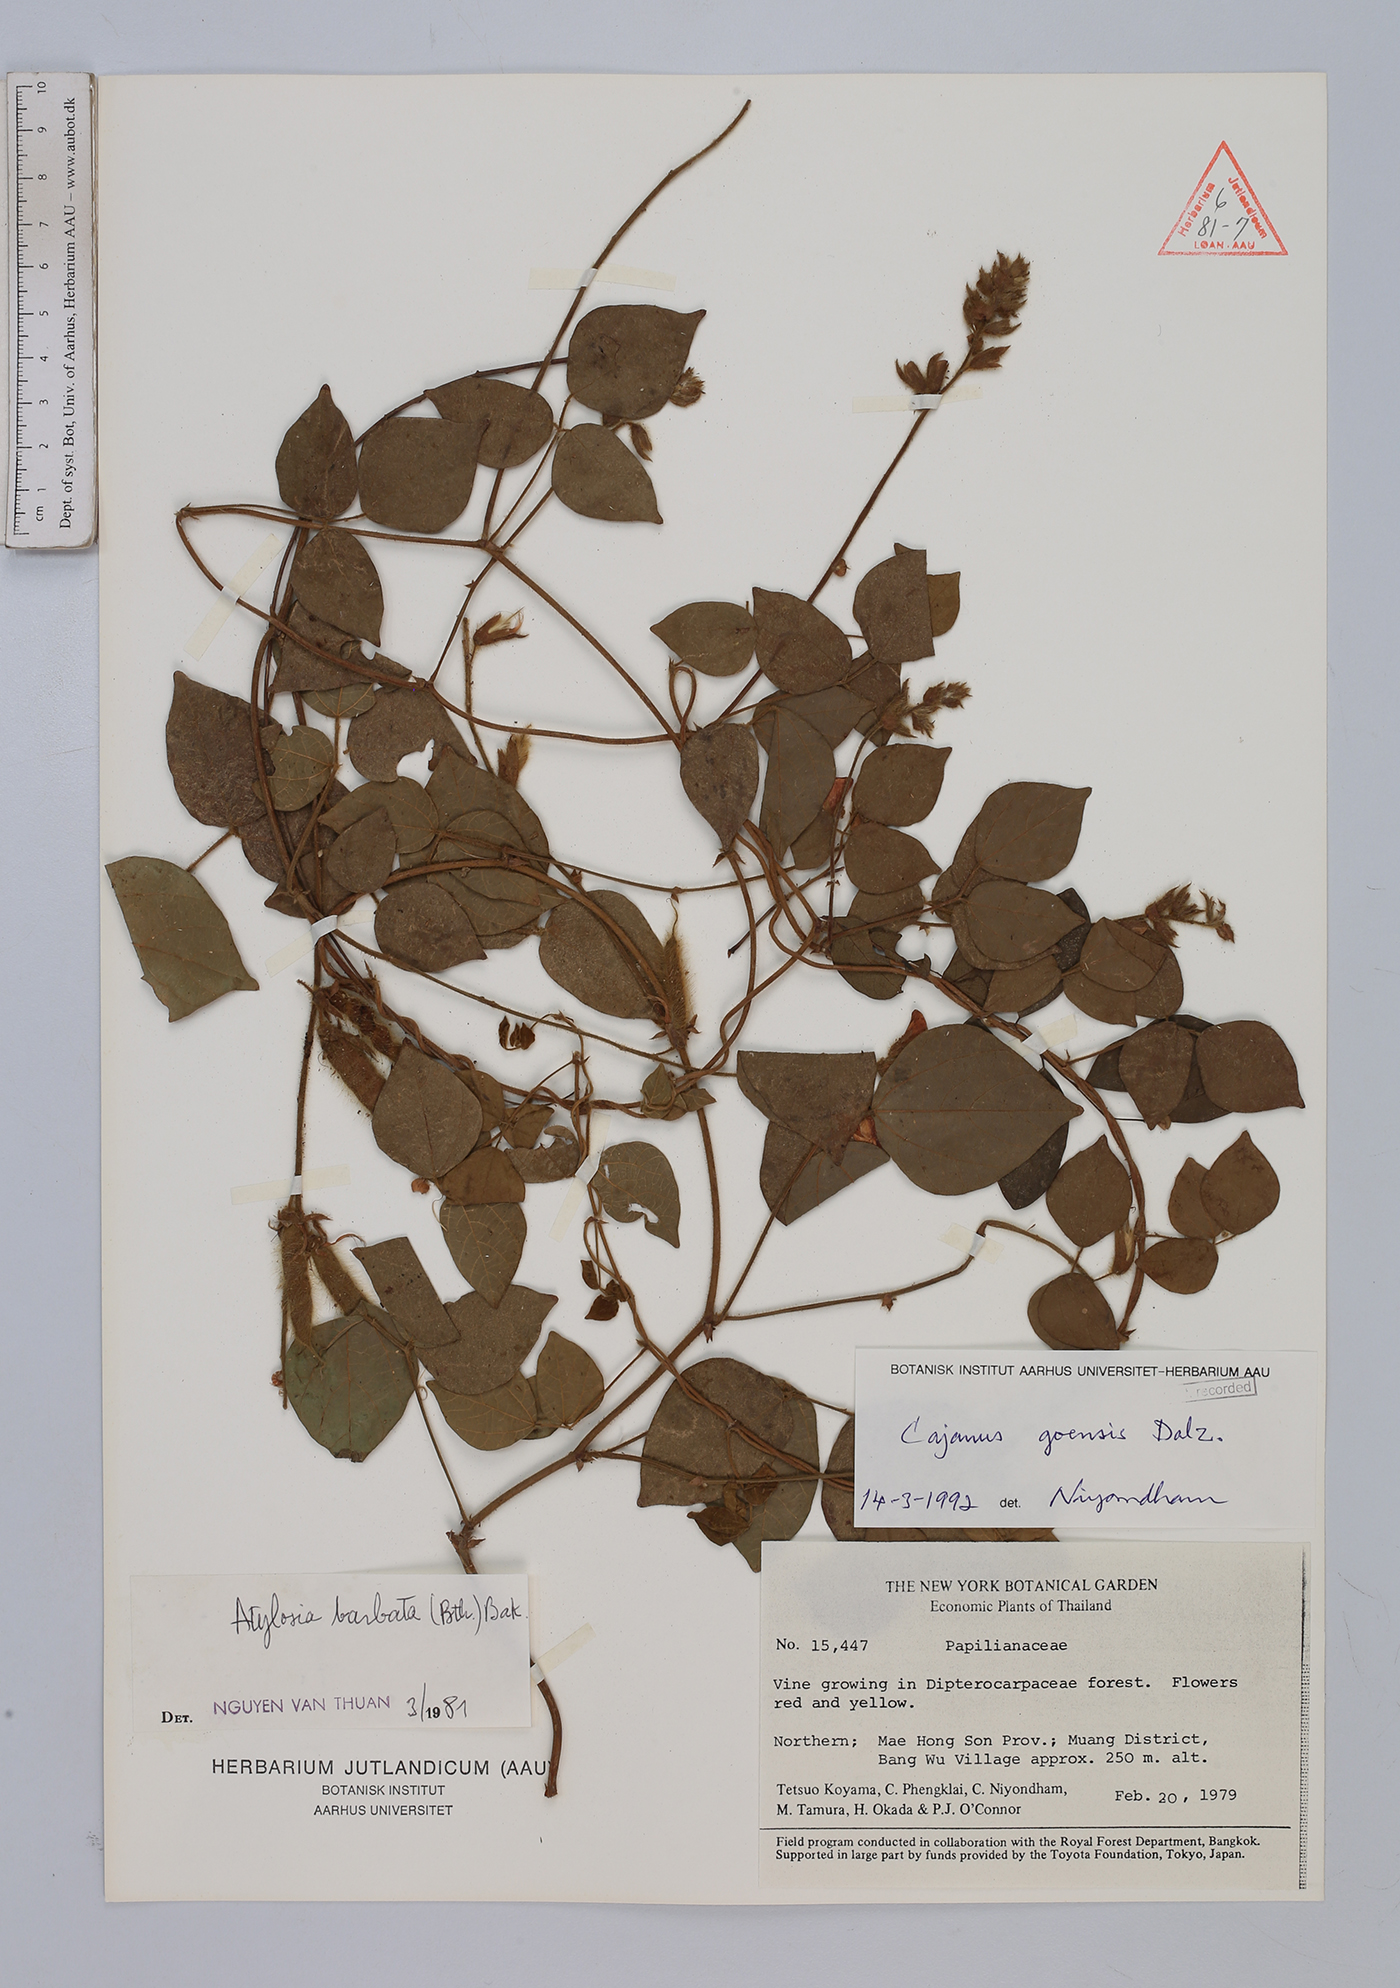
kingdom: Plantae
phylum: Tracheophyta
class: Magnoliopsida
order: Fabales
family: Fabaceae
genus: Cajanus
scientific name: Cajanus goensis
